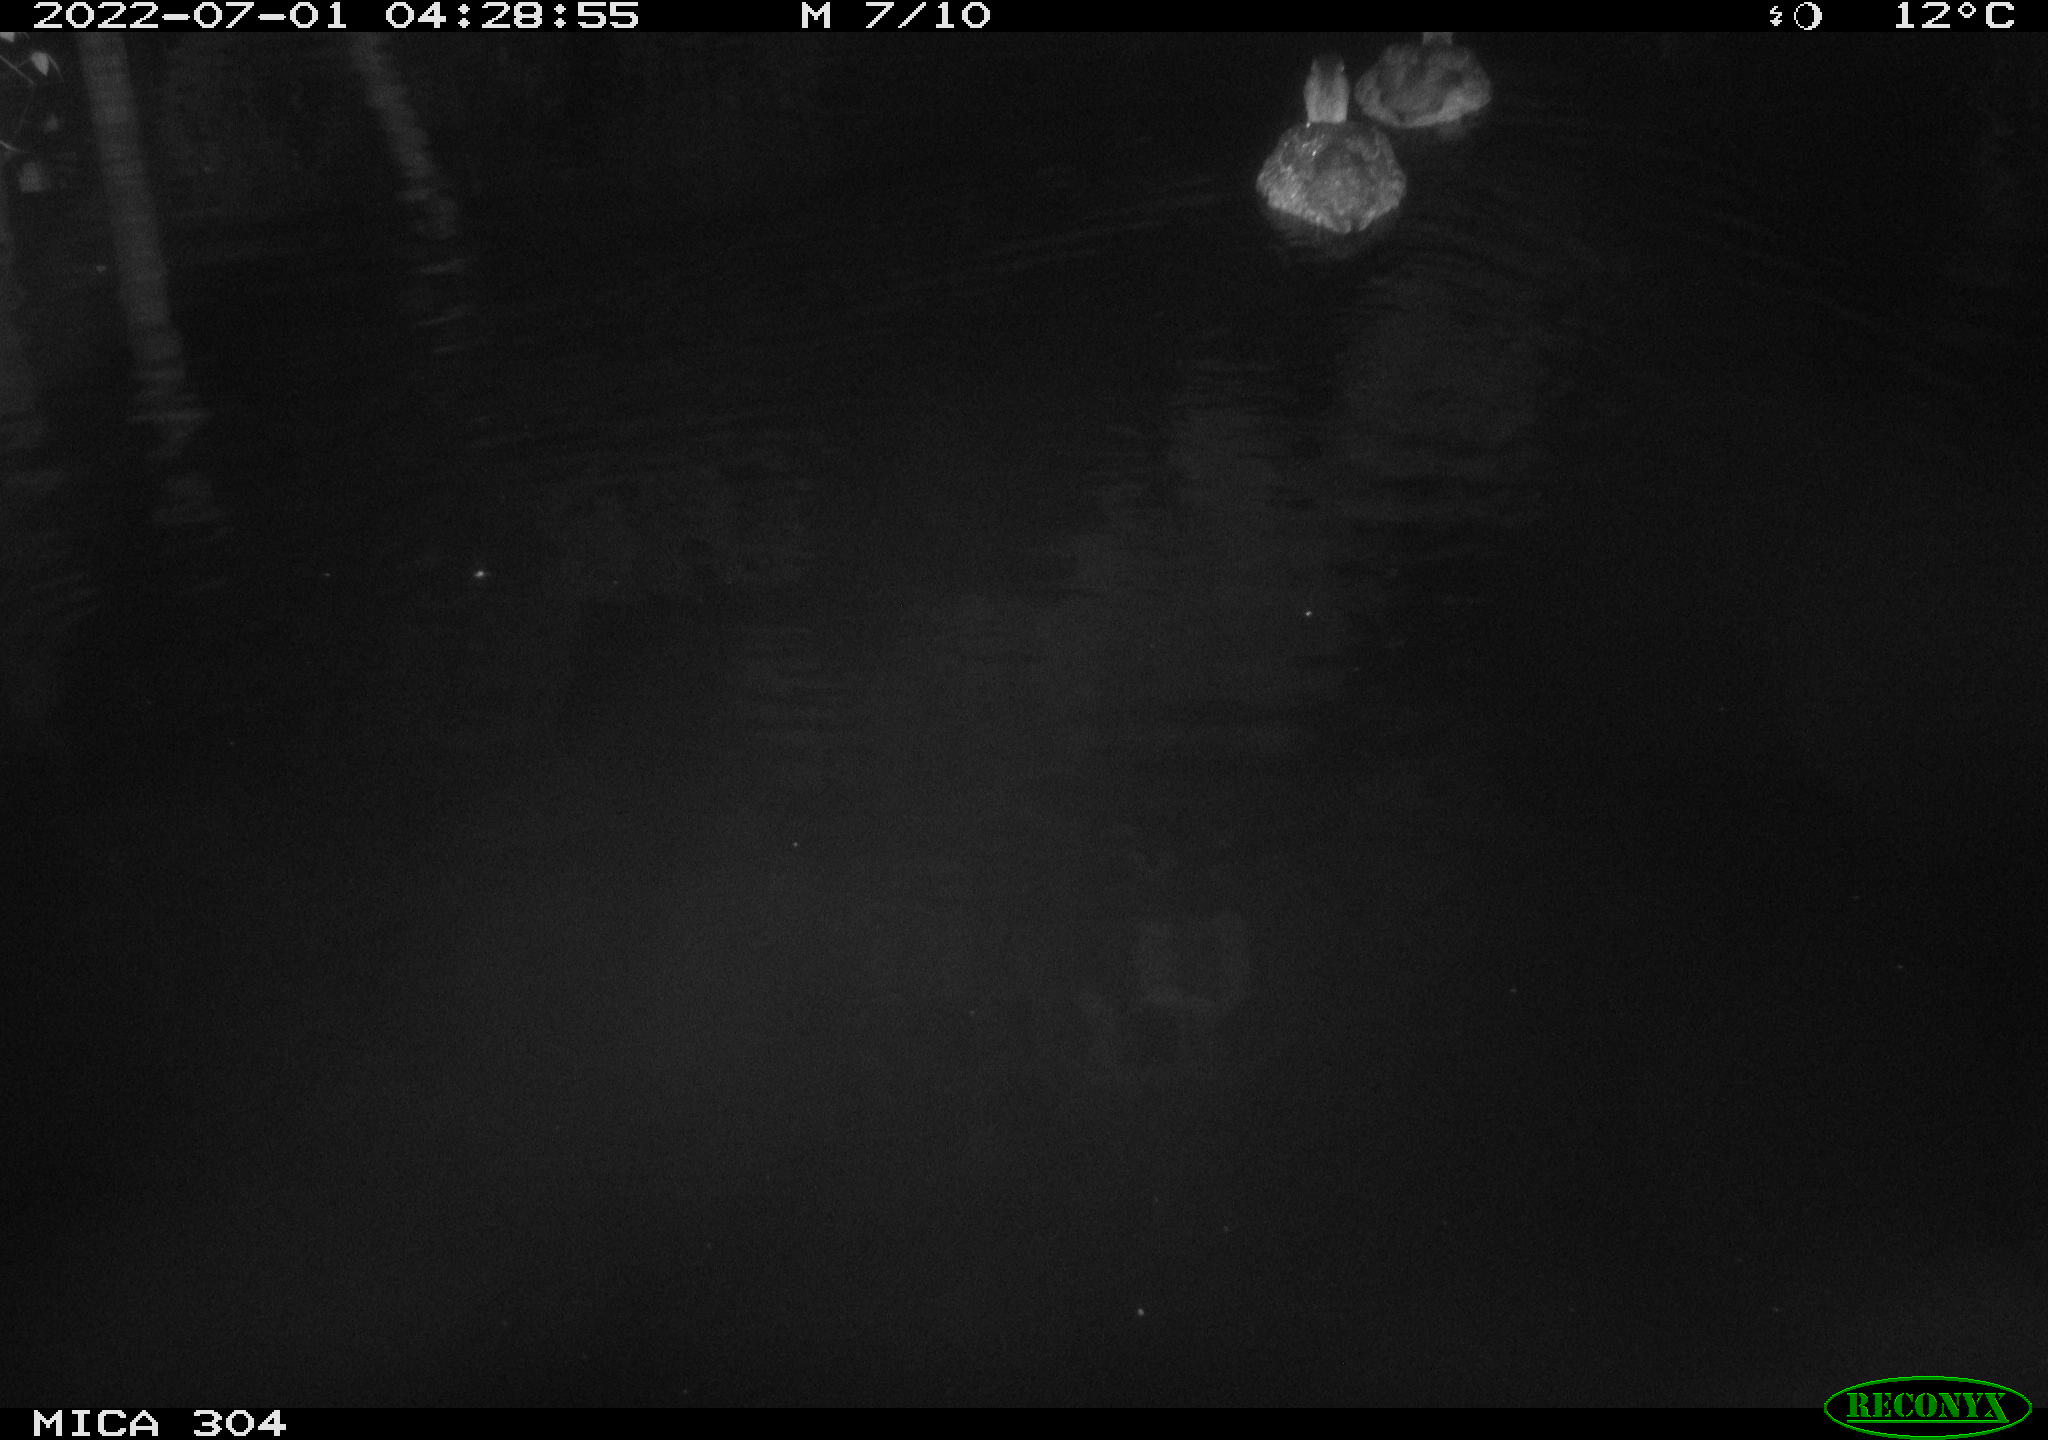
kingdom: Animalia
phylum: Chordata
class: Aves
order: Anseriformes
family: Anatidae
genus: Anas
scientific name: Anas platyrhynchos
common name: Mallard
